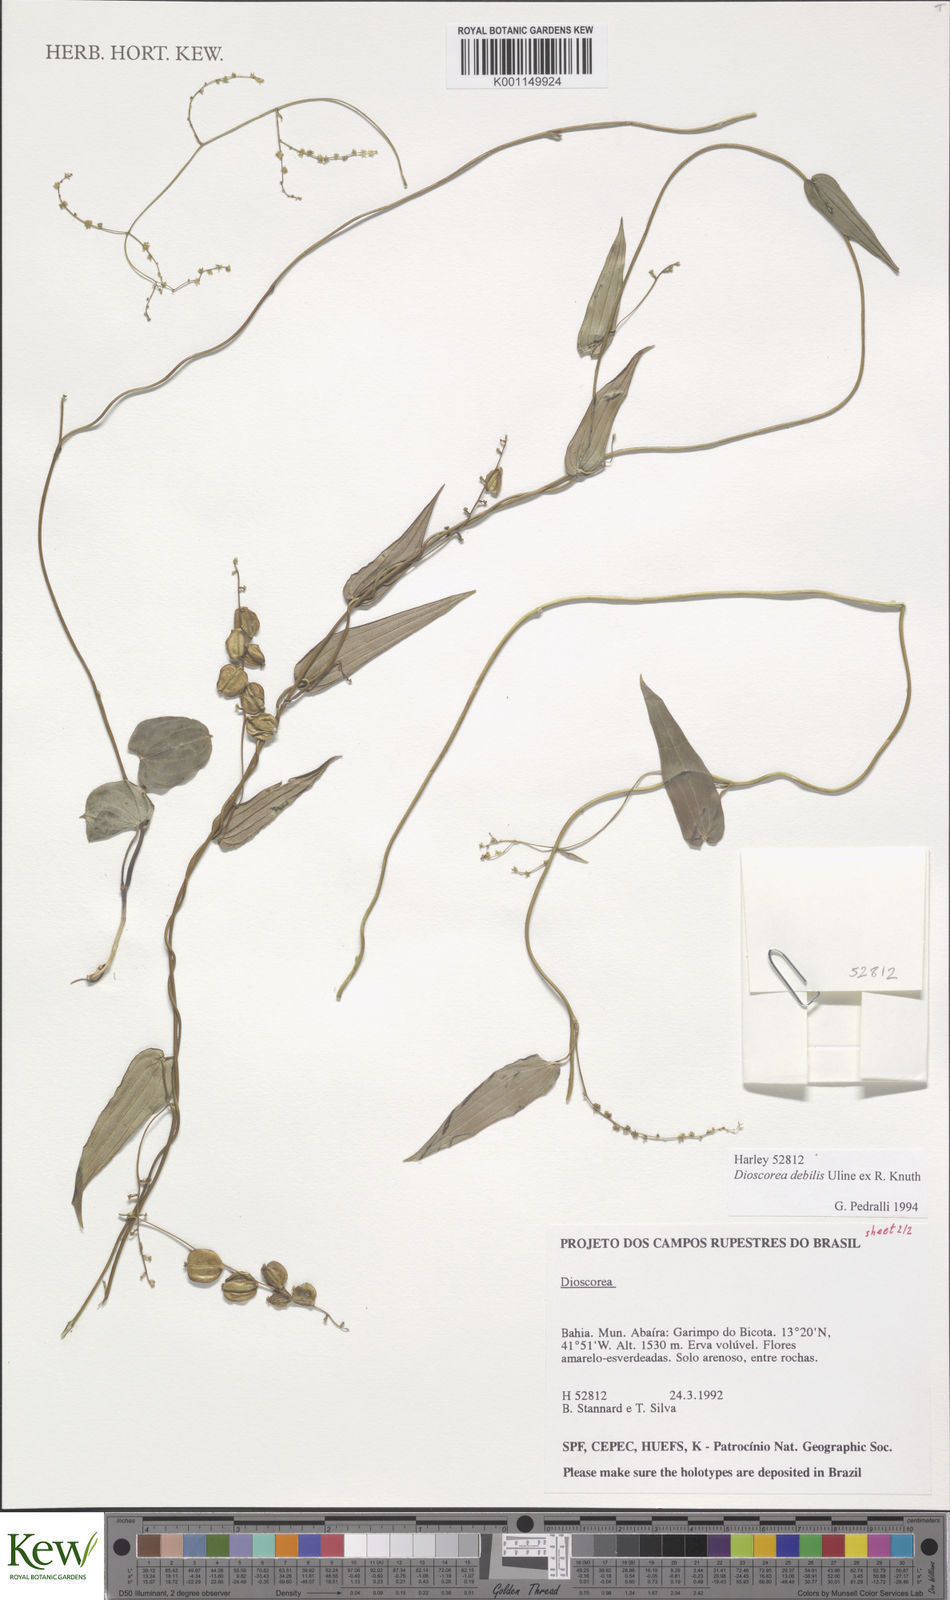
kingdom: Plantae
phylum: Tracheophyta
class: Liliopsida
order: Dioscoreales
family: Dioscoreaceae
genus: Dioscorea
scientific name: Dioscorea debilis
